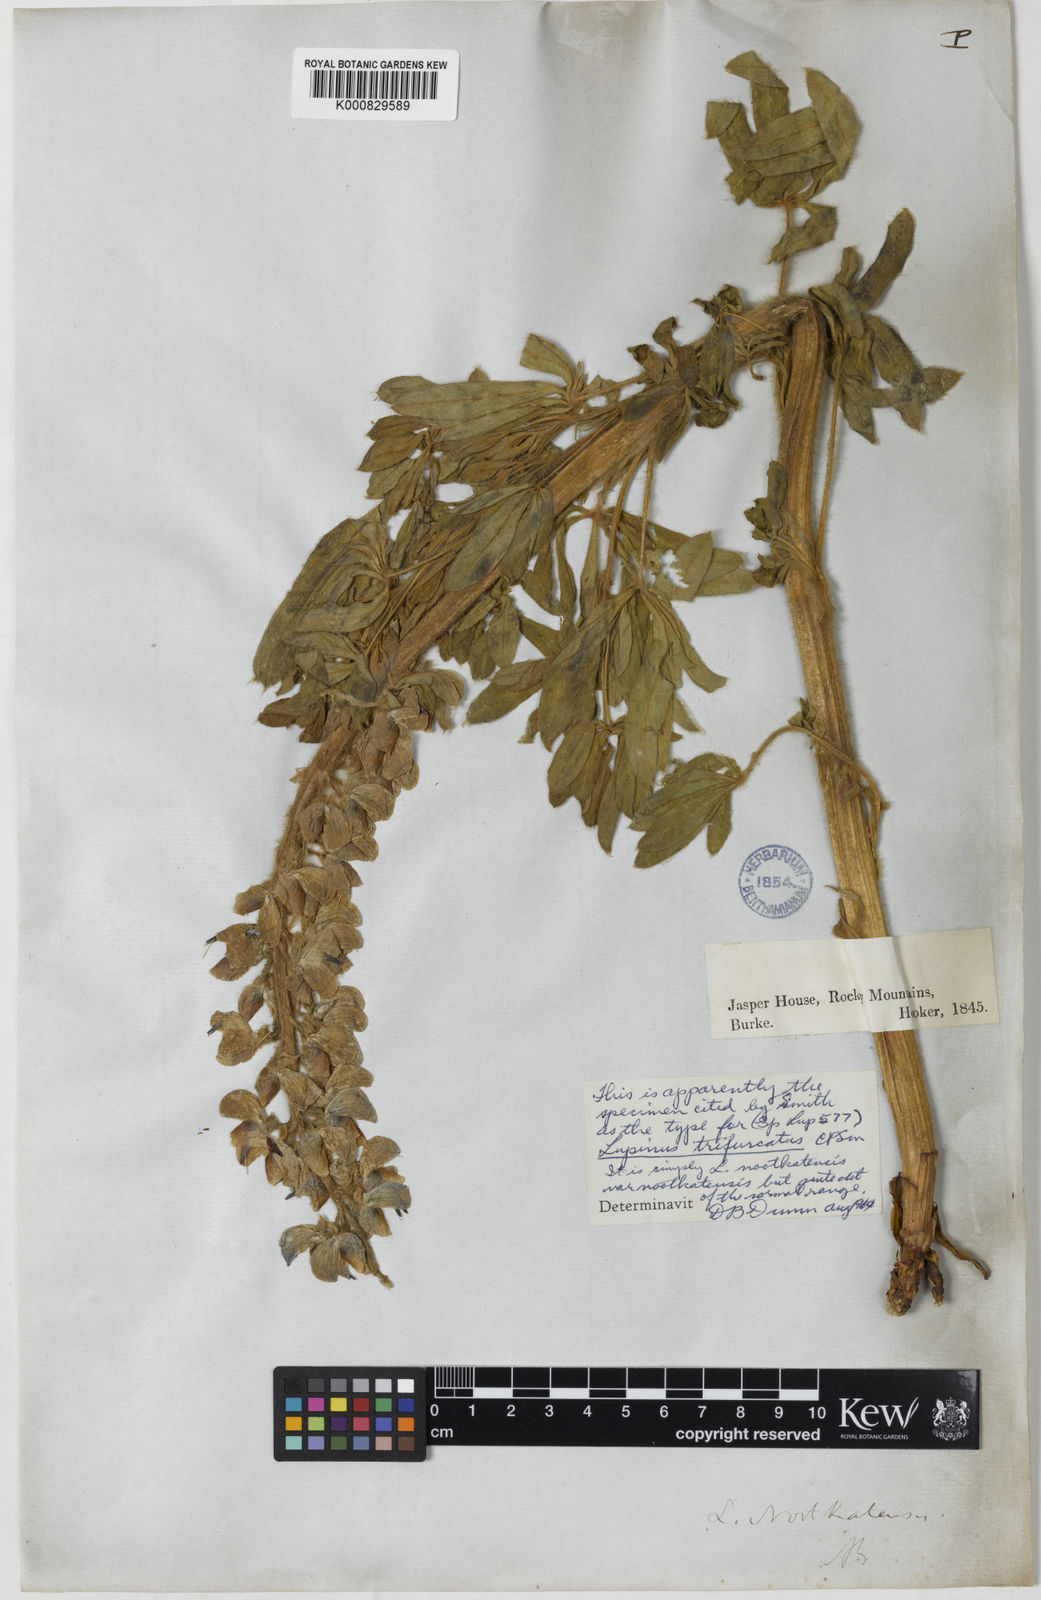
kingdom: Plantae
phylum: Tracheophyta
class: Magnoliopsida
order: Fabales
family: Fabaceae
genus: Lupinus
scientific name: Lupinus nootkatensis
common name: Nootka lupine
